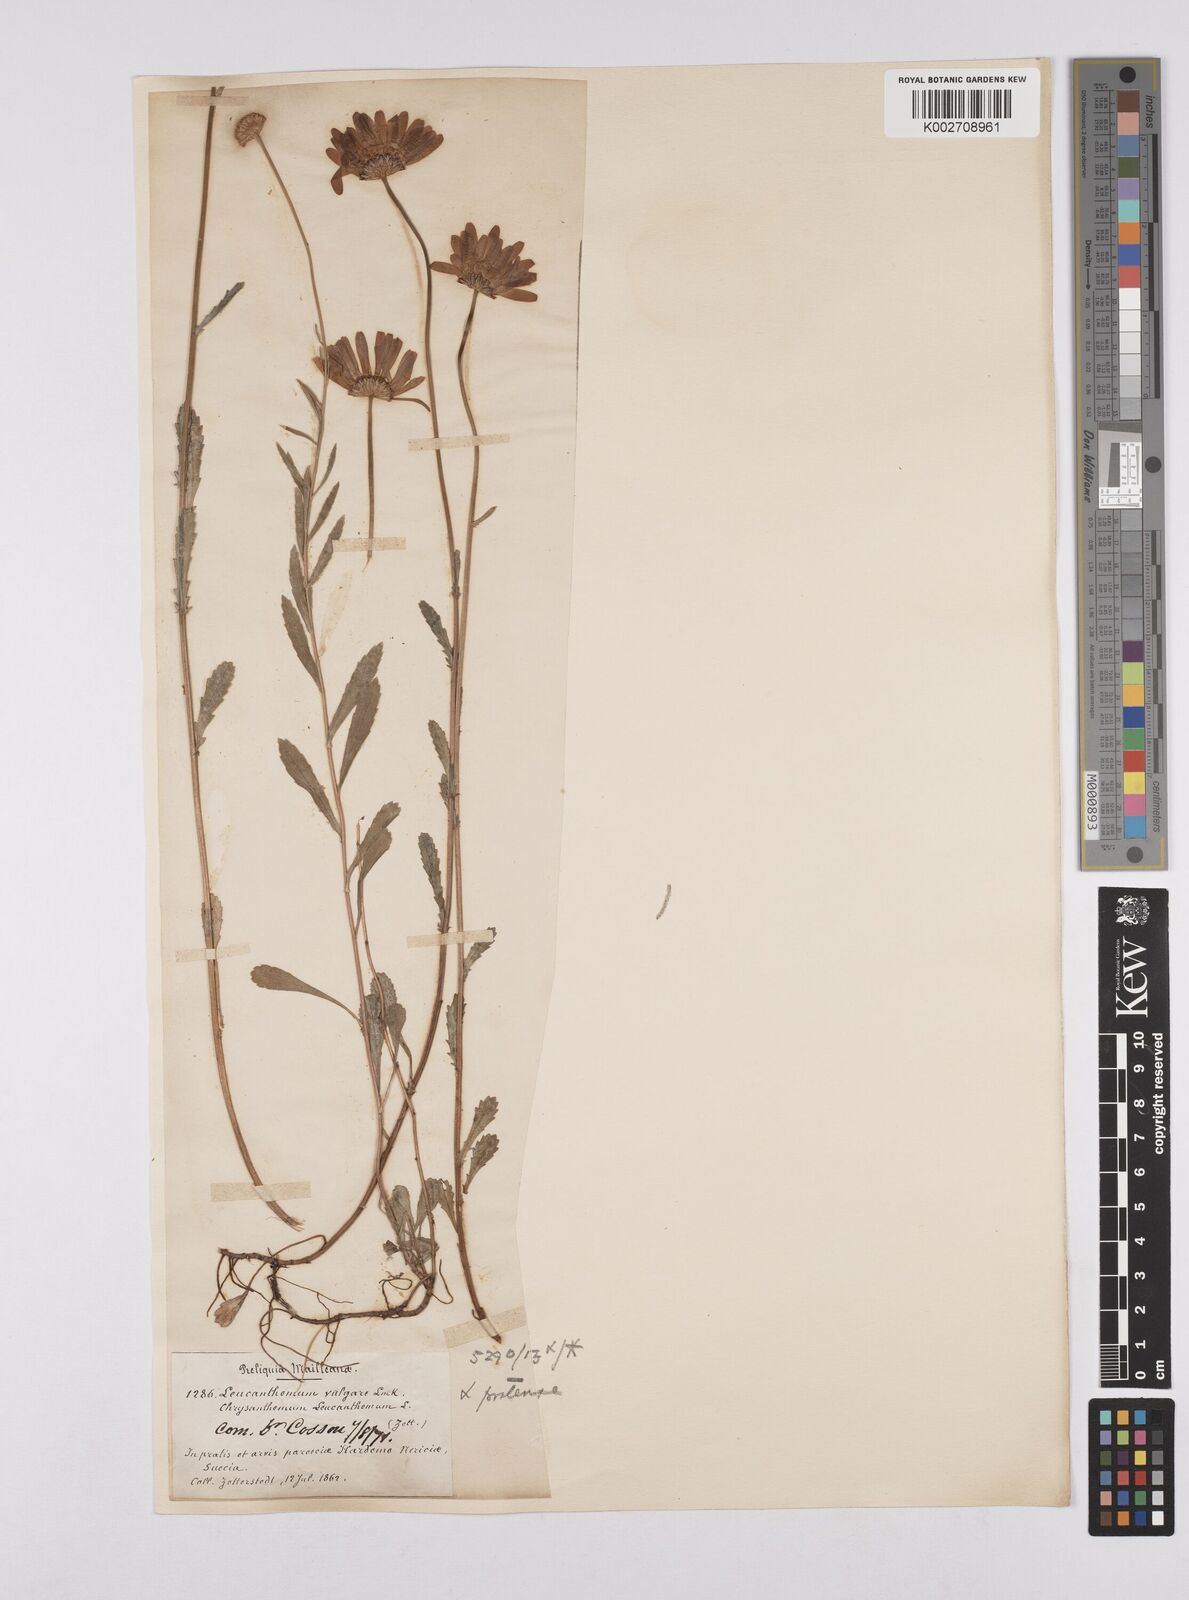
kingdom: Plantae
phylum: Tracheophyta
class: Magnoliopsida
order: Asterales
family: Asteraceae
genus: Leucanthemum
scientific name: Leucanthemum vulgare
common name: Oxeye daisy
